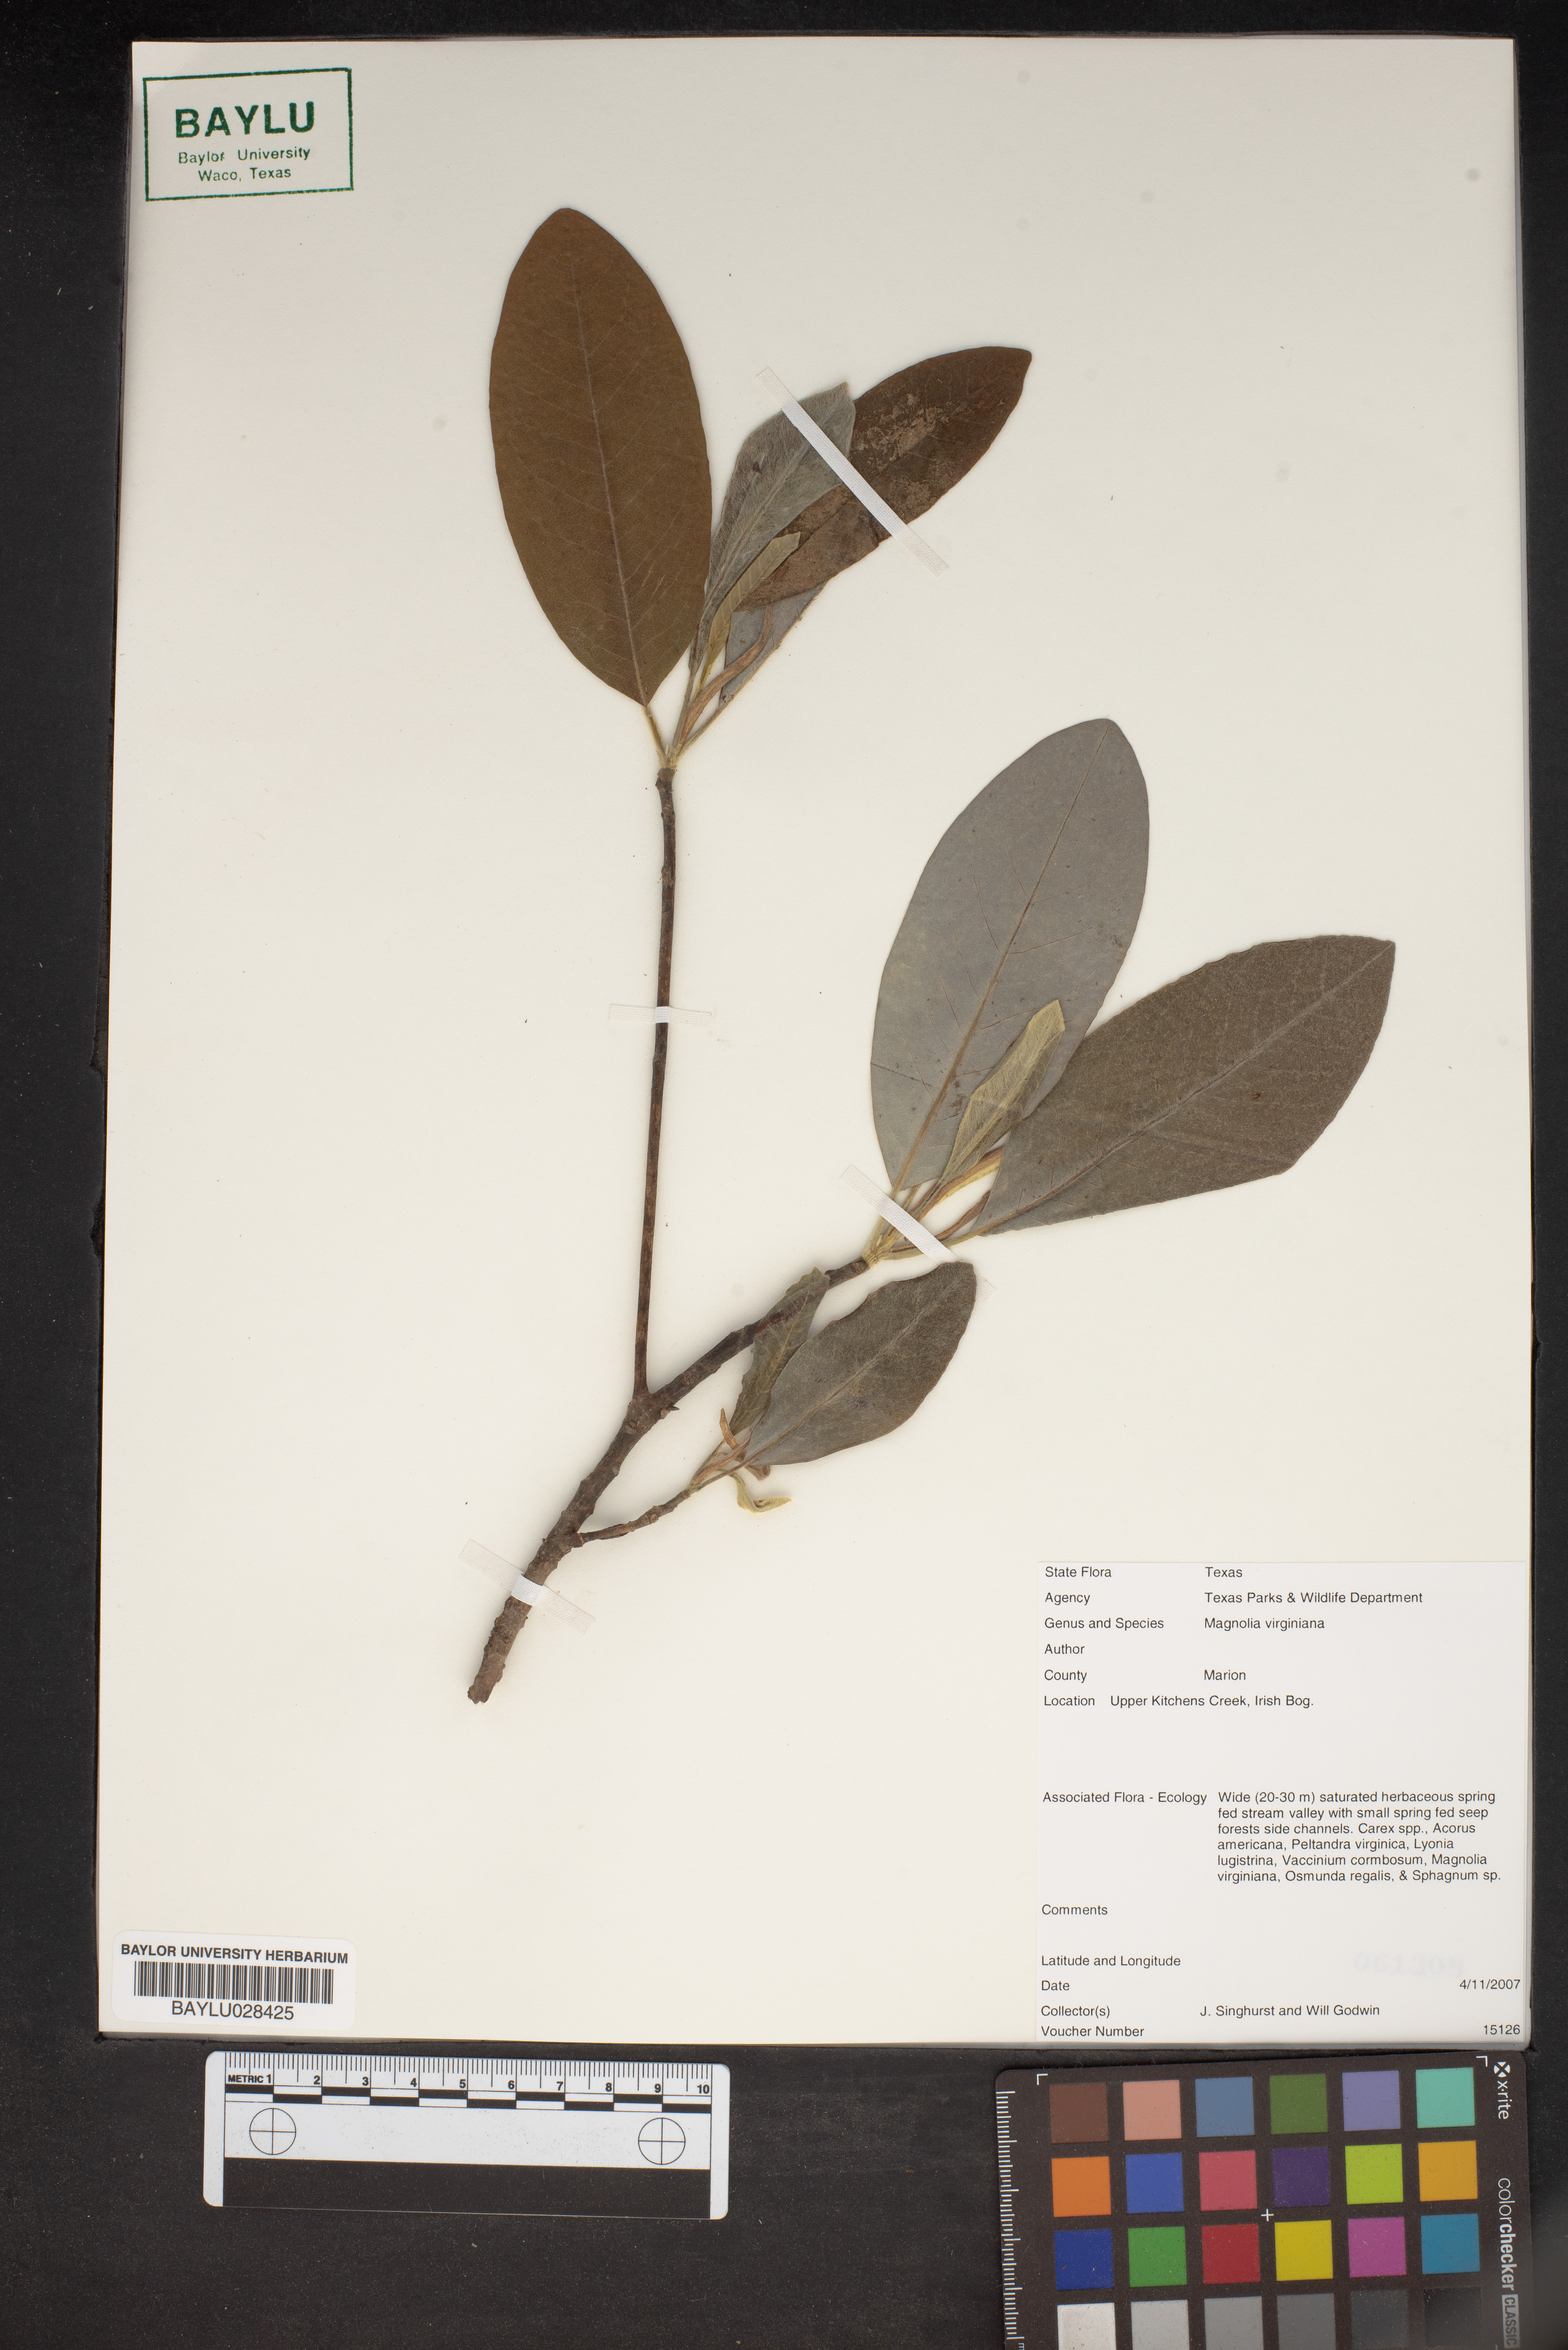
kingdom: Plantae
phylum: Tracheophyta
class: Magnoliopsida
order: Magnoliales
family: Magnoliaceae
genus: Magnolia
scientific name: Magnolia virginiana
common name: Swamp bay
